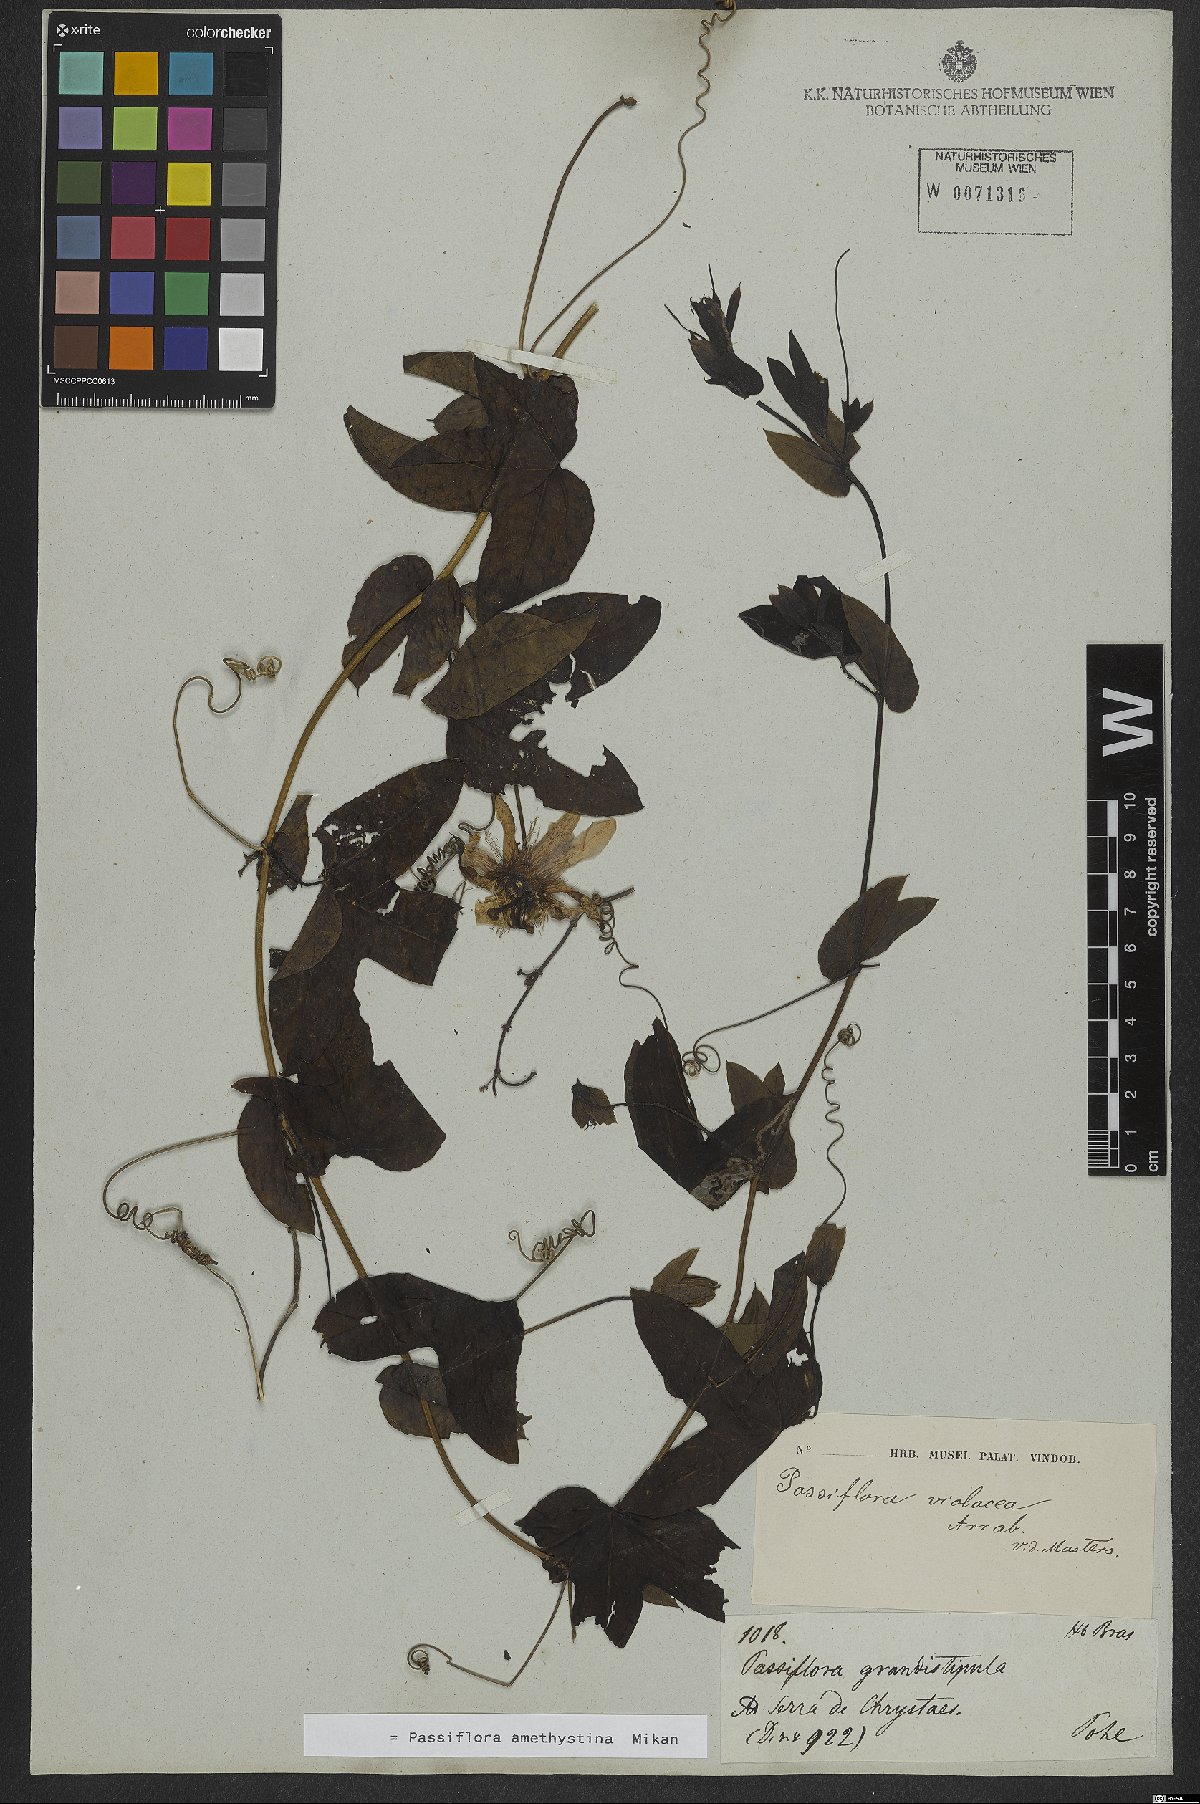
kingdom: Plantae
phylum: Tracheophyta
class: Magnoliopsida
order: Malpighiales
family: Passifloraceae
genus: Passiflora
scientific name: Passiflora amethystina
